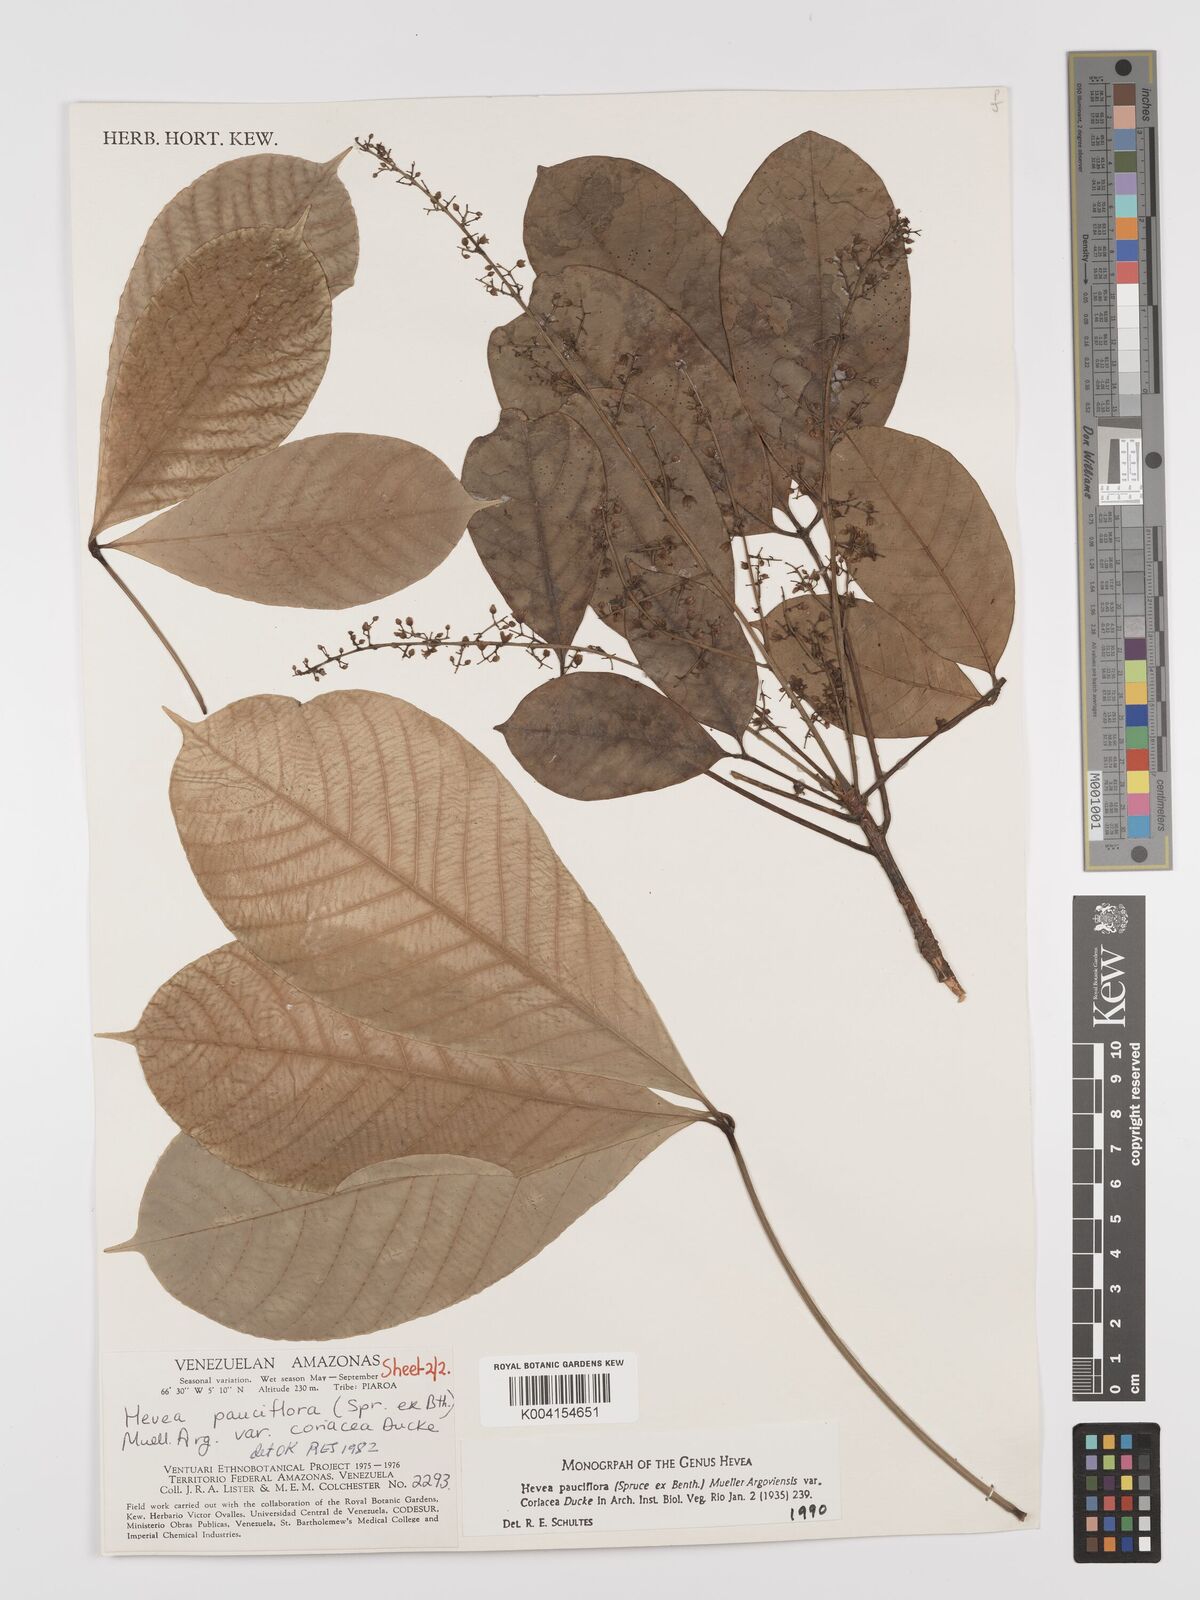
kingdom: Plantae
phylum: Tracheophyta
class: Magnoliopsida
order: Malpighiales
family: Euphorbiaceae
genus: Hevea
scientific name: Hevea pauciflora
